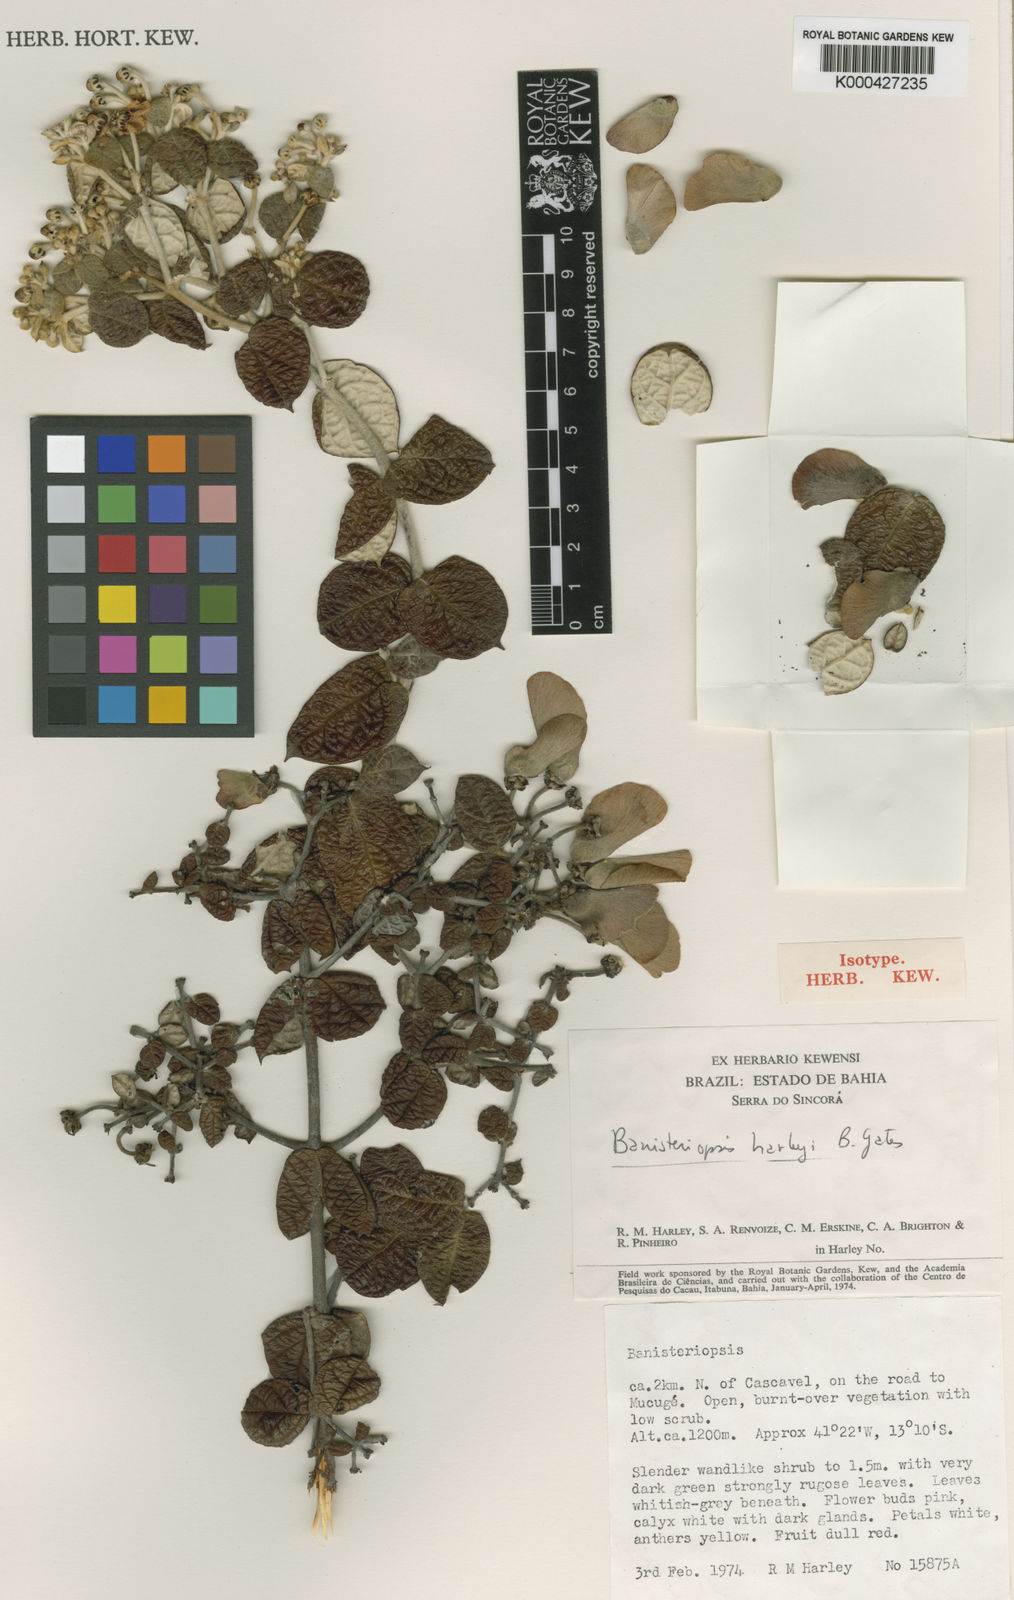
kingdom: Plantae
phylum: Tracheophyta
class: Magnoliopsida
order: Malpighiales
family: Malpighiaceae
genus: Banisteriopsis
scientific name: Banisteriopsis harleyi
